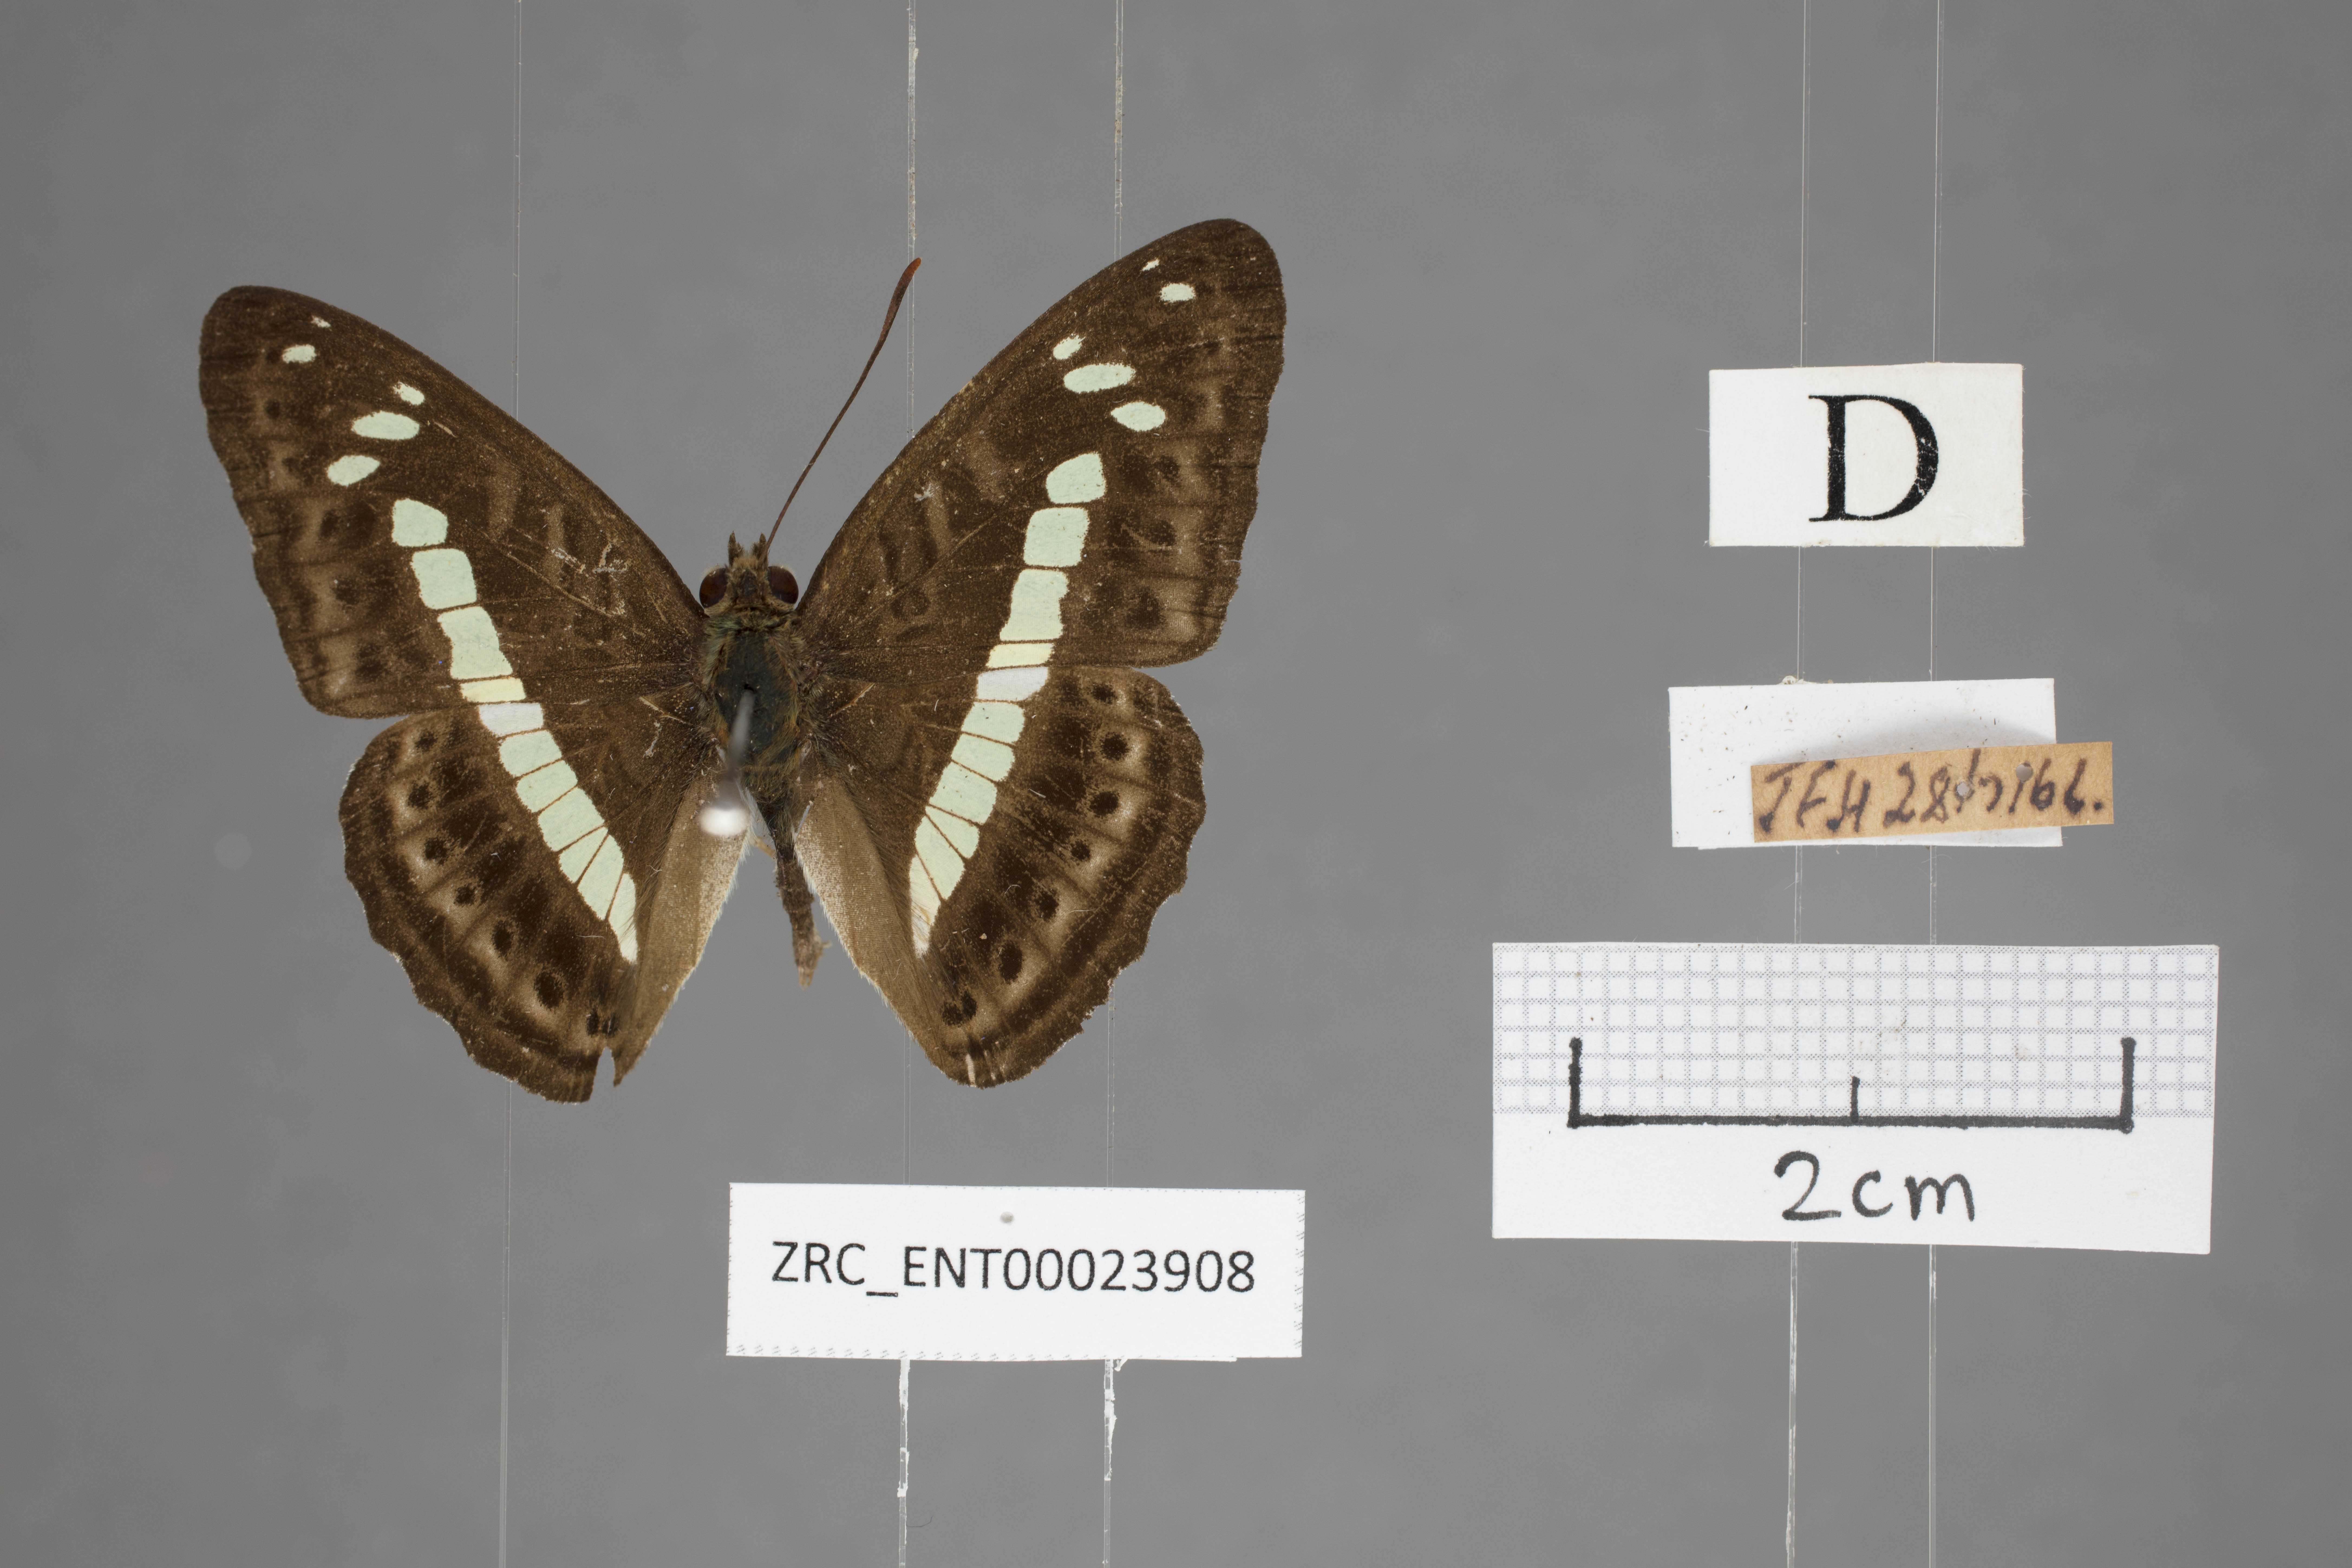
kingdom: Animalia
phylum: Arthropoda
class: Insecta
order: Lepidoptera
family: Nymphalidae
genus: Limenitis
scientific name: Limenitis
